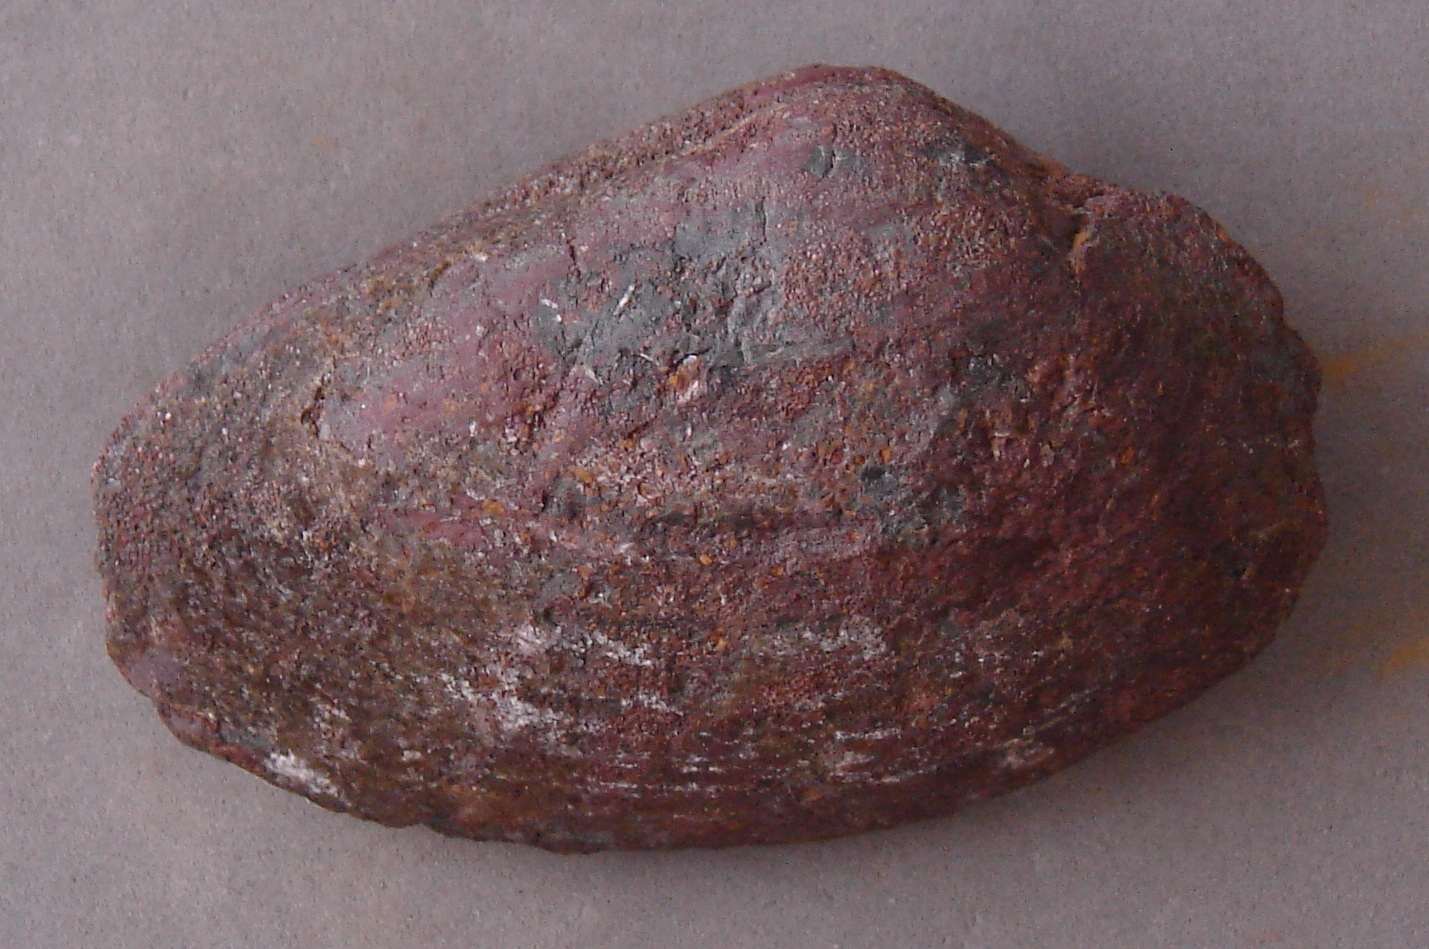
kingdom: Animalia
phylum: Mollusca
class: Bivalvia
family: Pholadomyidae
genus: Pholadomya
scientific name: Pholadomya fidicula
